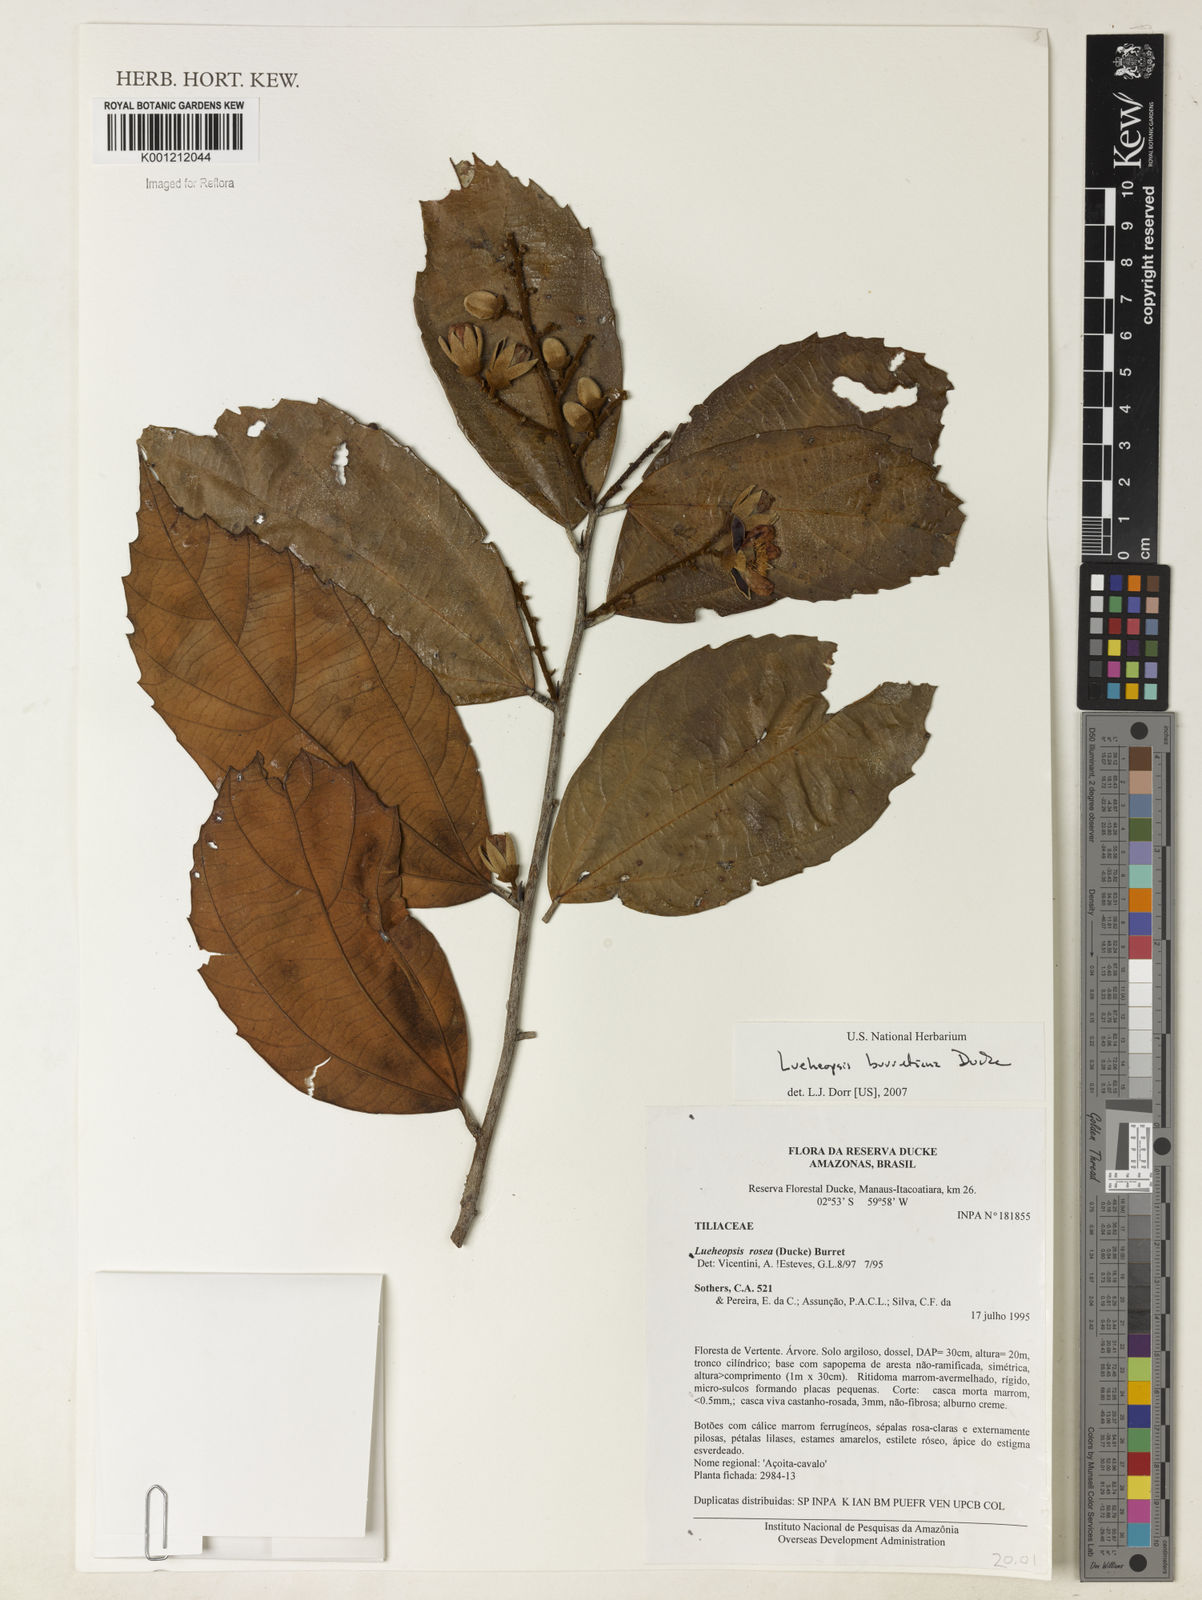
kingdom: Plantae
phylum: Tracheophyta
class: Magnoliopsida
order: Malvales
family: Malvaceae
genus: Lueheopsis
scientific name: Lueheopsis burretiana
